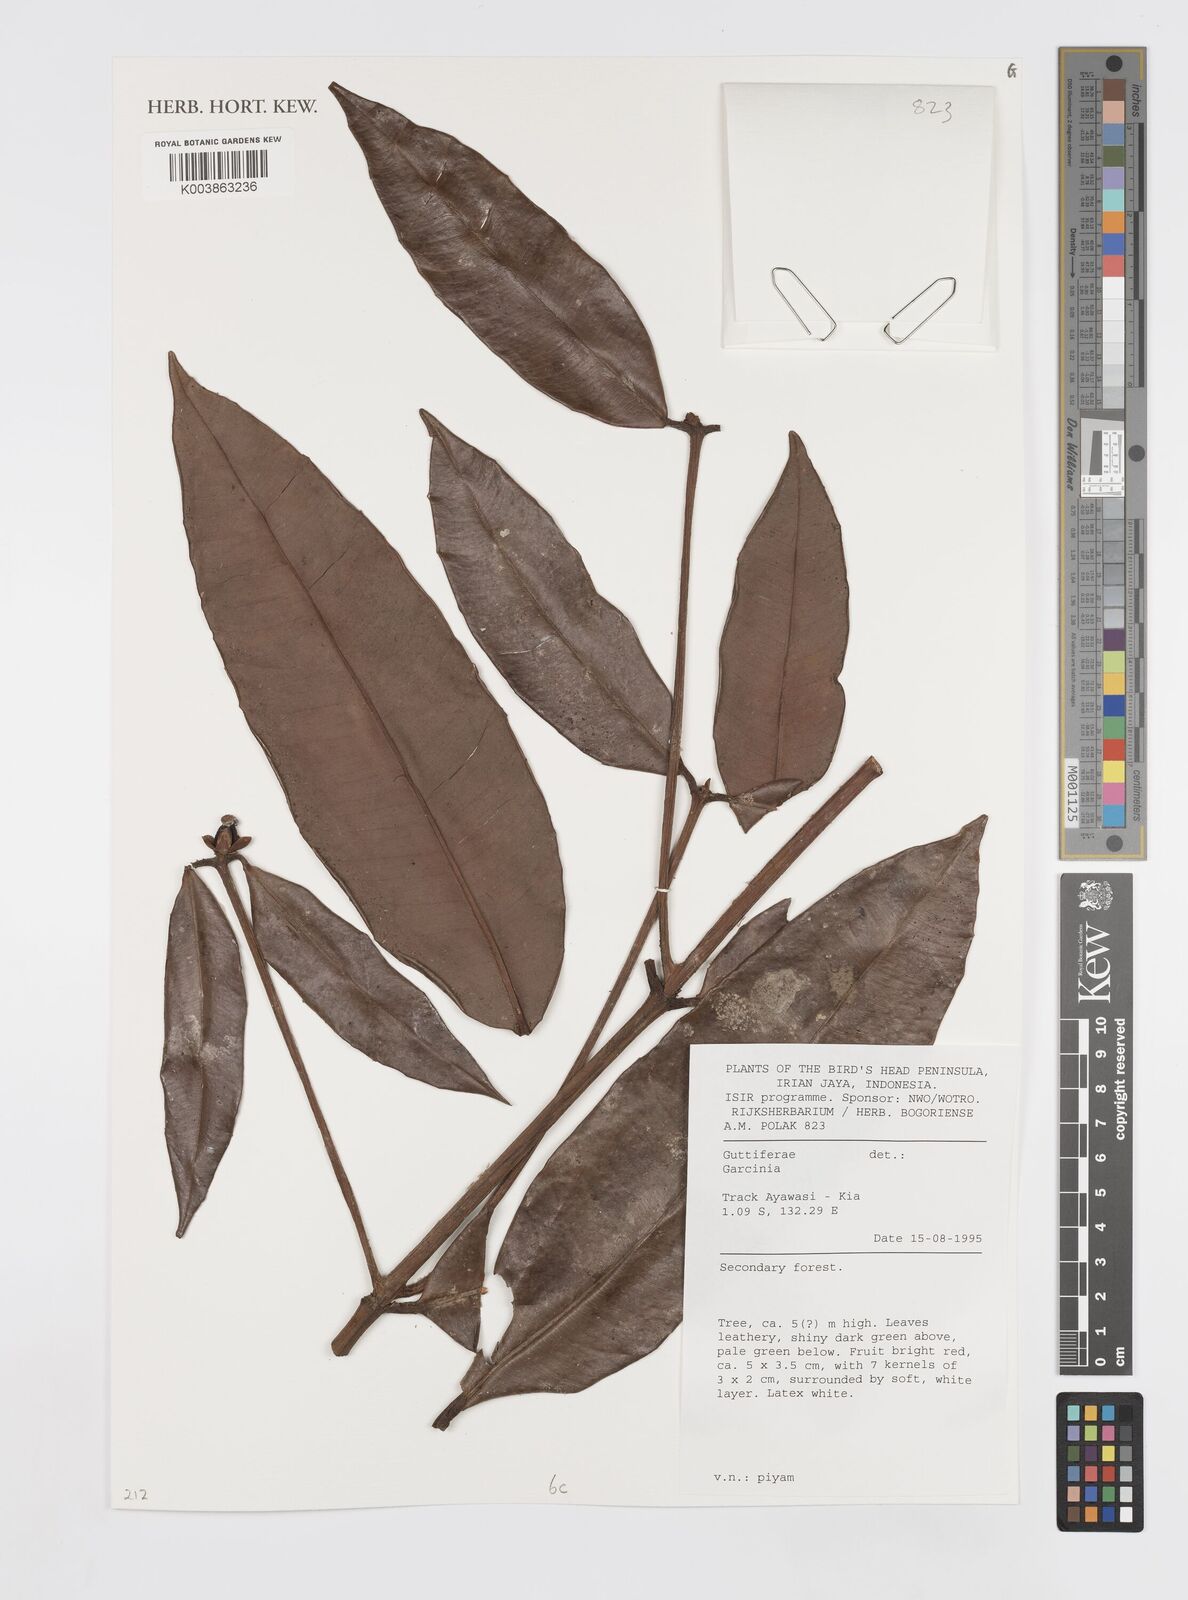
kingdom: Plantae
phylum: Tracheophyta
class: Magnoliopsida
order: Malpighiales
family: Clusiaceae
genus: Garcinia
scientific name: Garcinia
